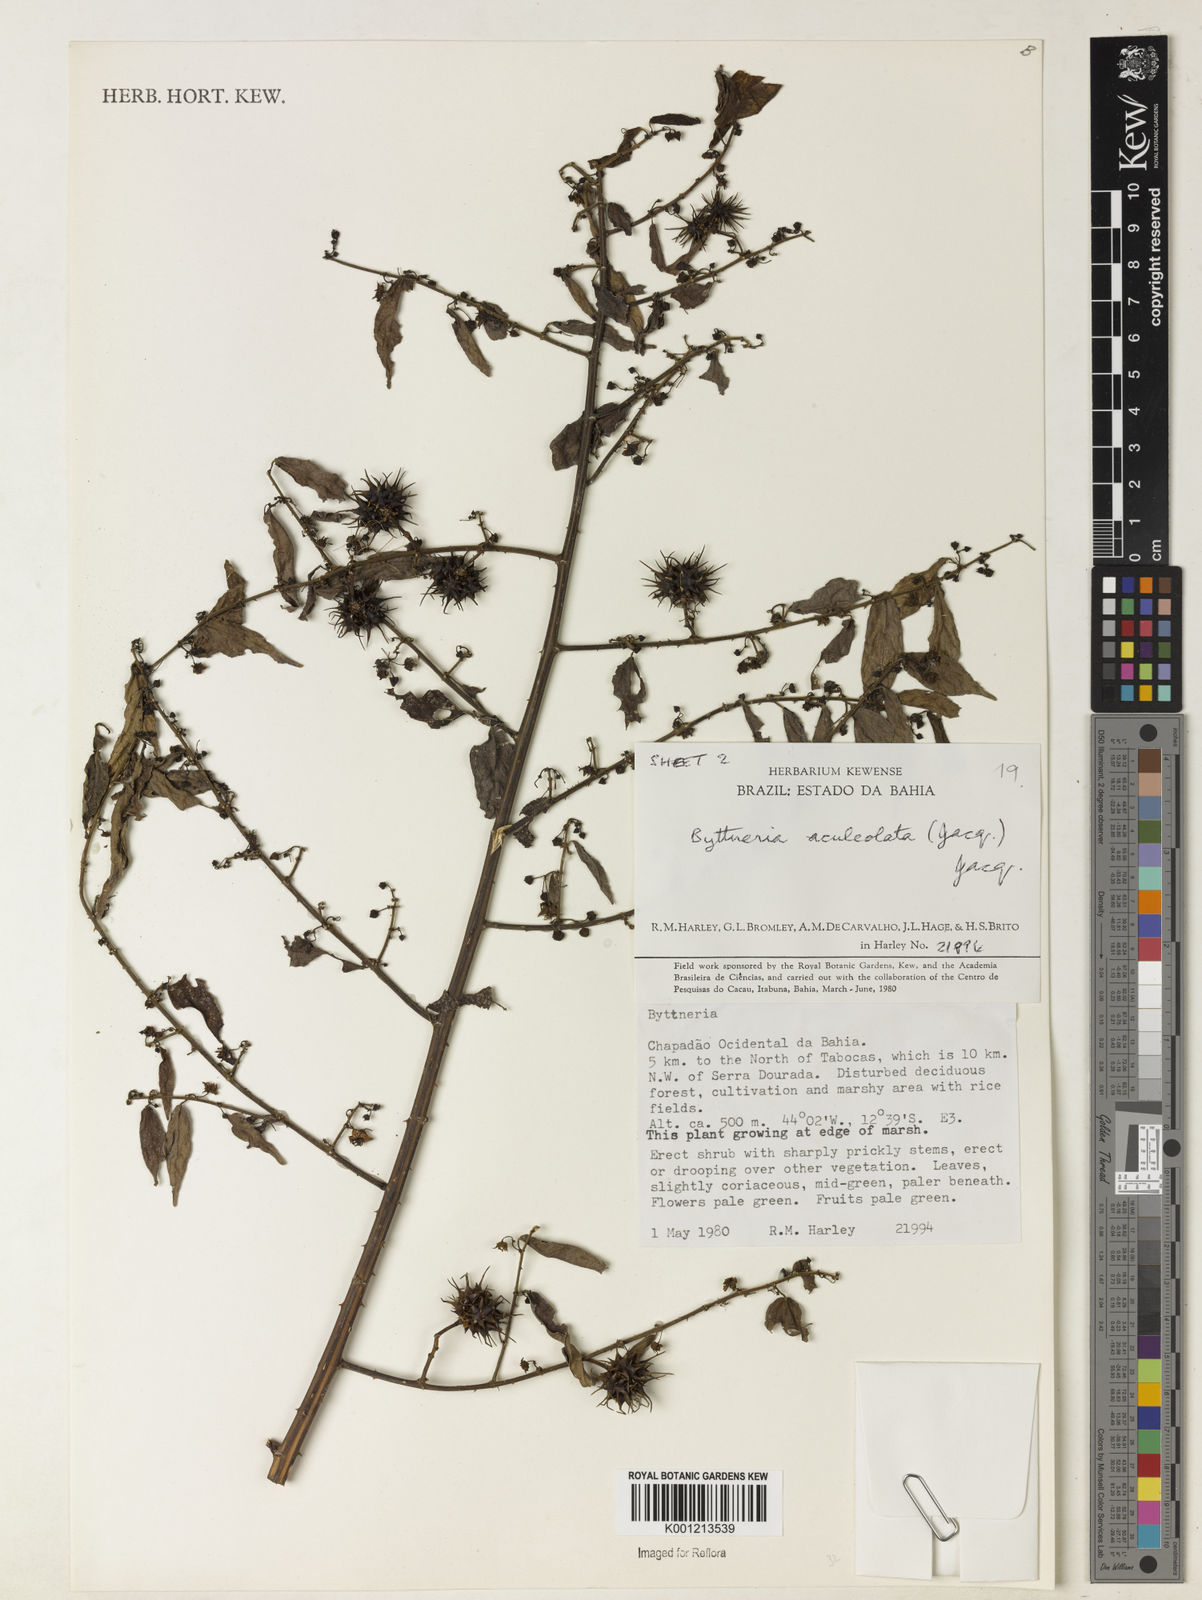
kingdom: Plantae
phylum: Tracheophyta
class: Magnoliopsida
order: Malvales
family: Malvaceae
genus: Byttneria
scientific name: Byttneria aculeata
